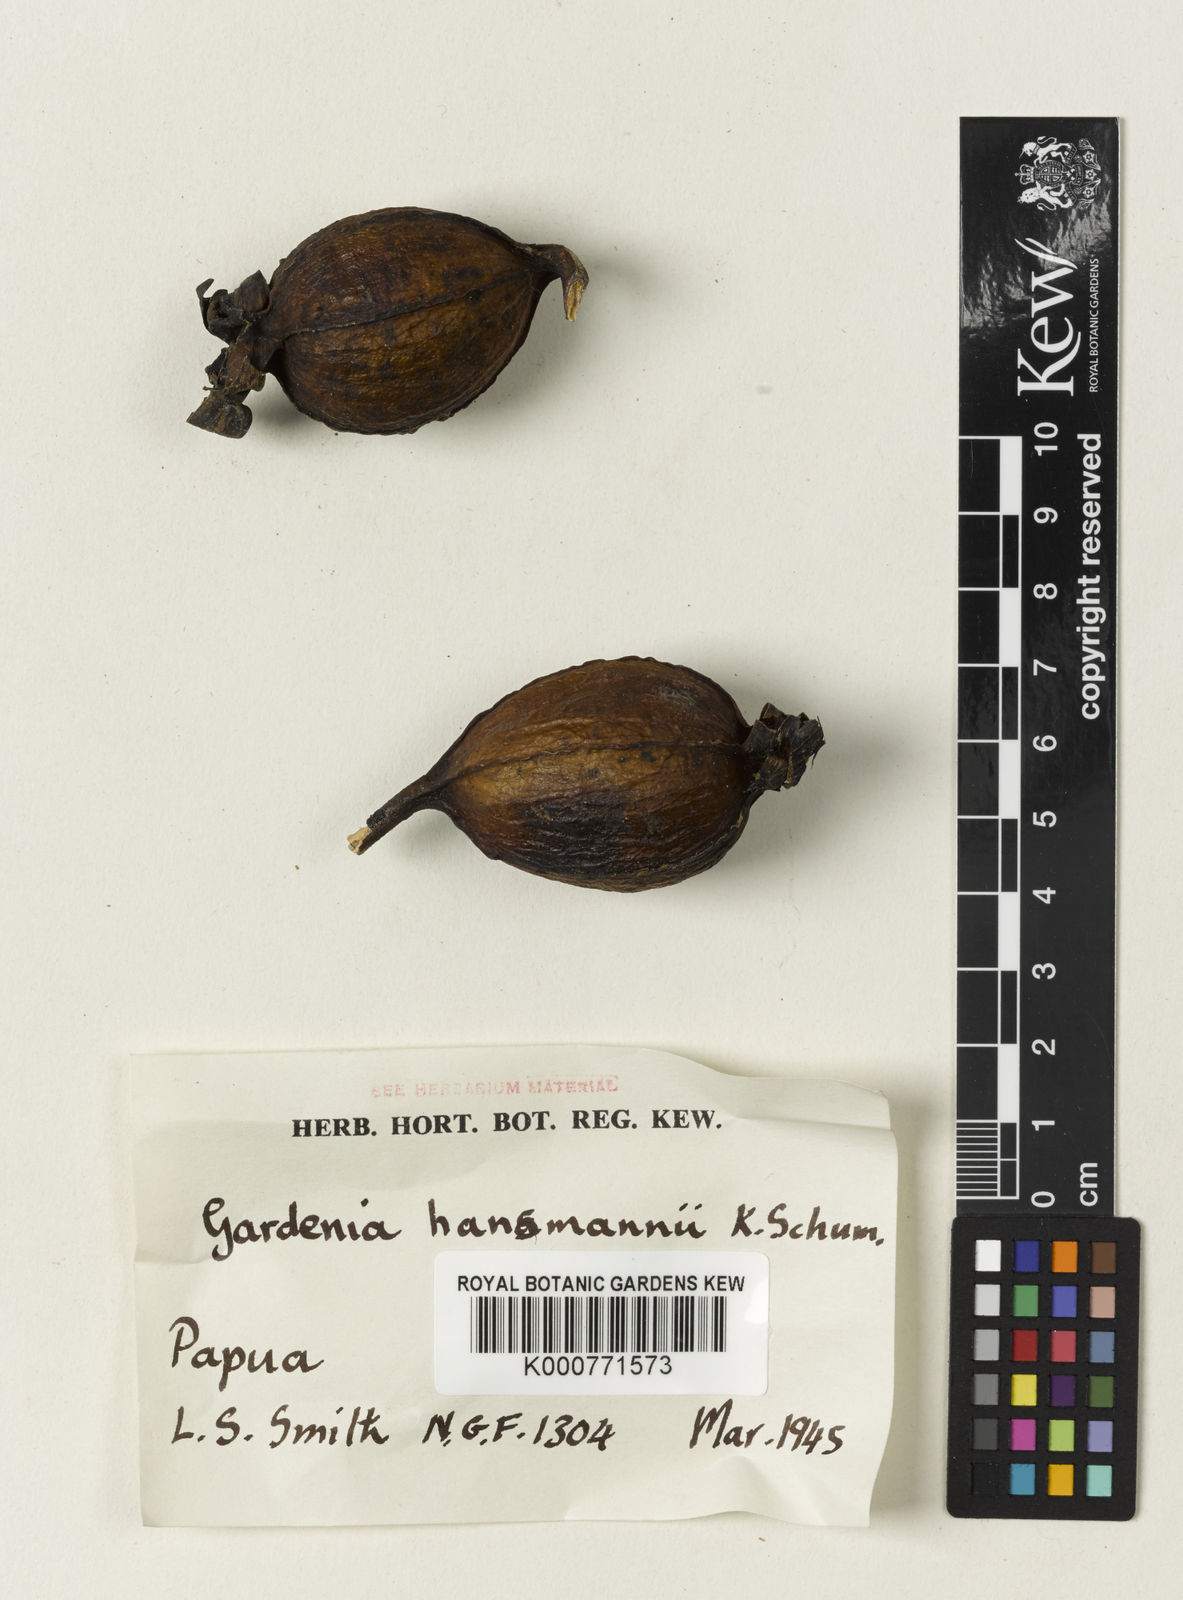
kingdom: Plantae
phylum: Tracheophyta
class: Magnoliopsida
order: Gentianales
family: Rubiaceae
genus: Gardenia
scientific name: Gardenia hansemannii
